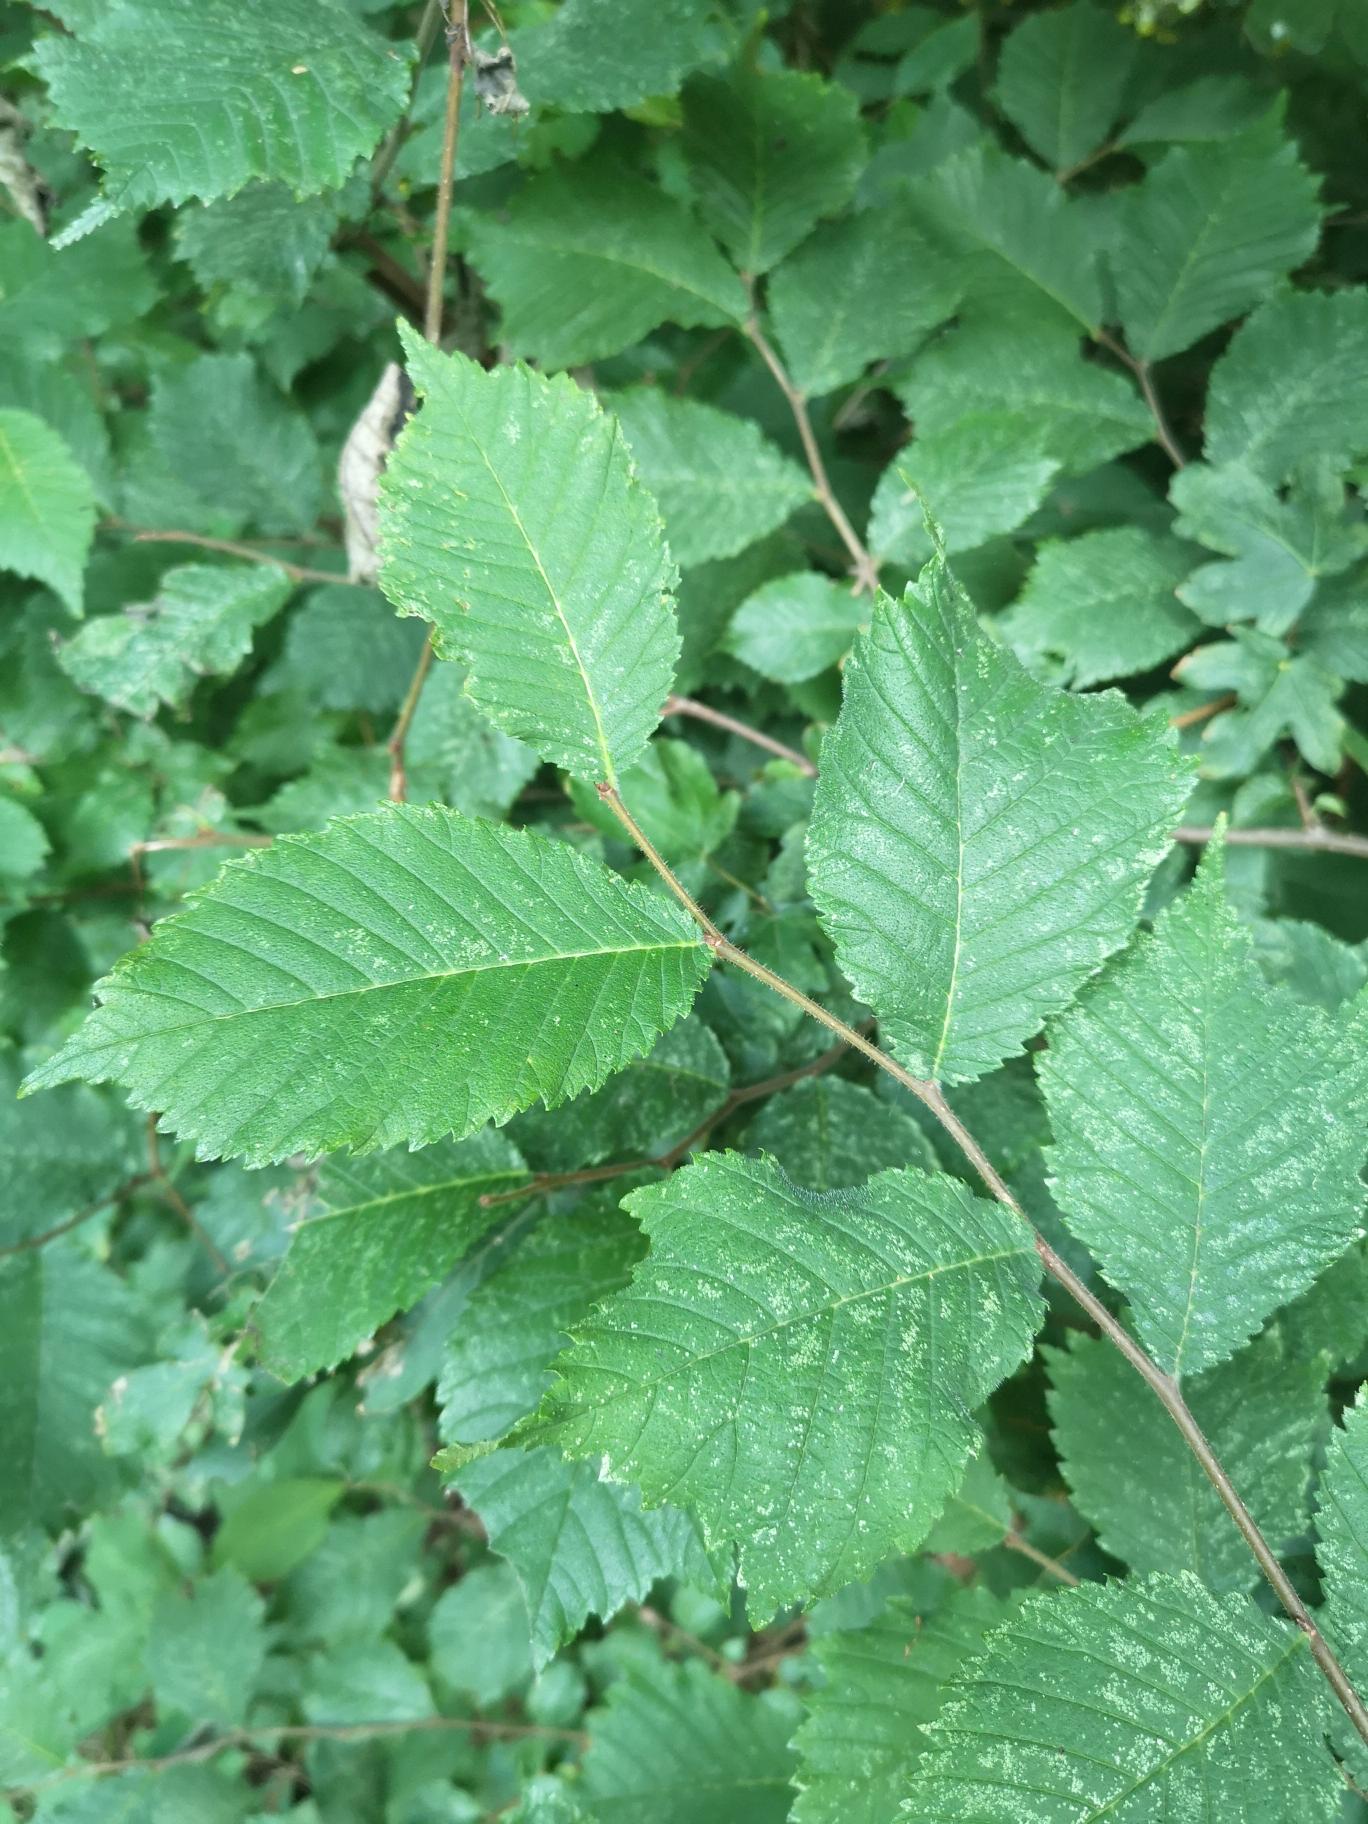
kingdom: Plantae
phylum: Tracheophyta
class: Magnoliopsida
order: Rosales
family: Ulmaceae
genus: Ulmus
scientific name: Ulmus glabra
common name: Skov-elm/storbladet elm
